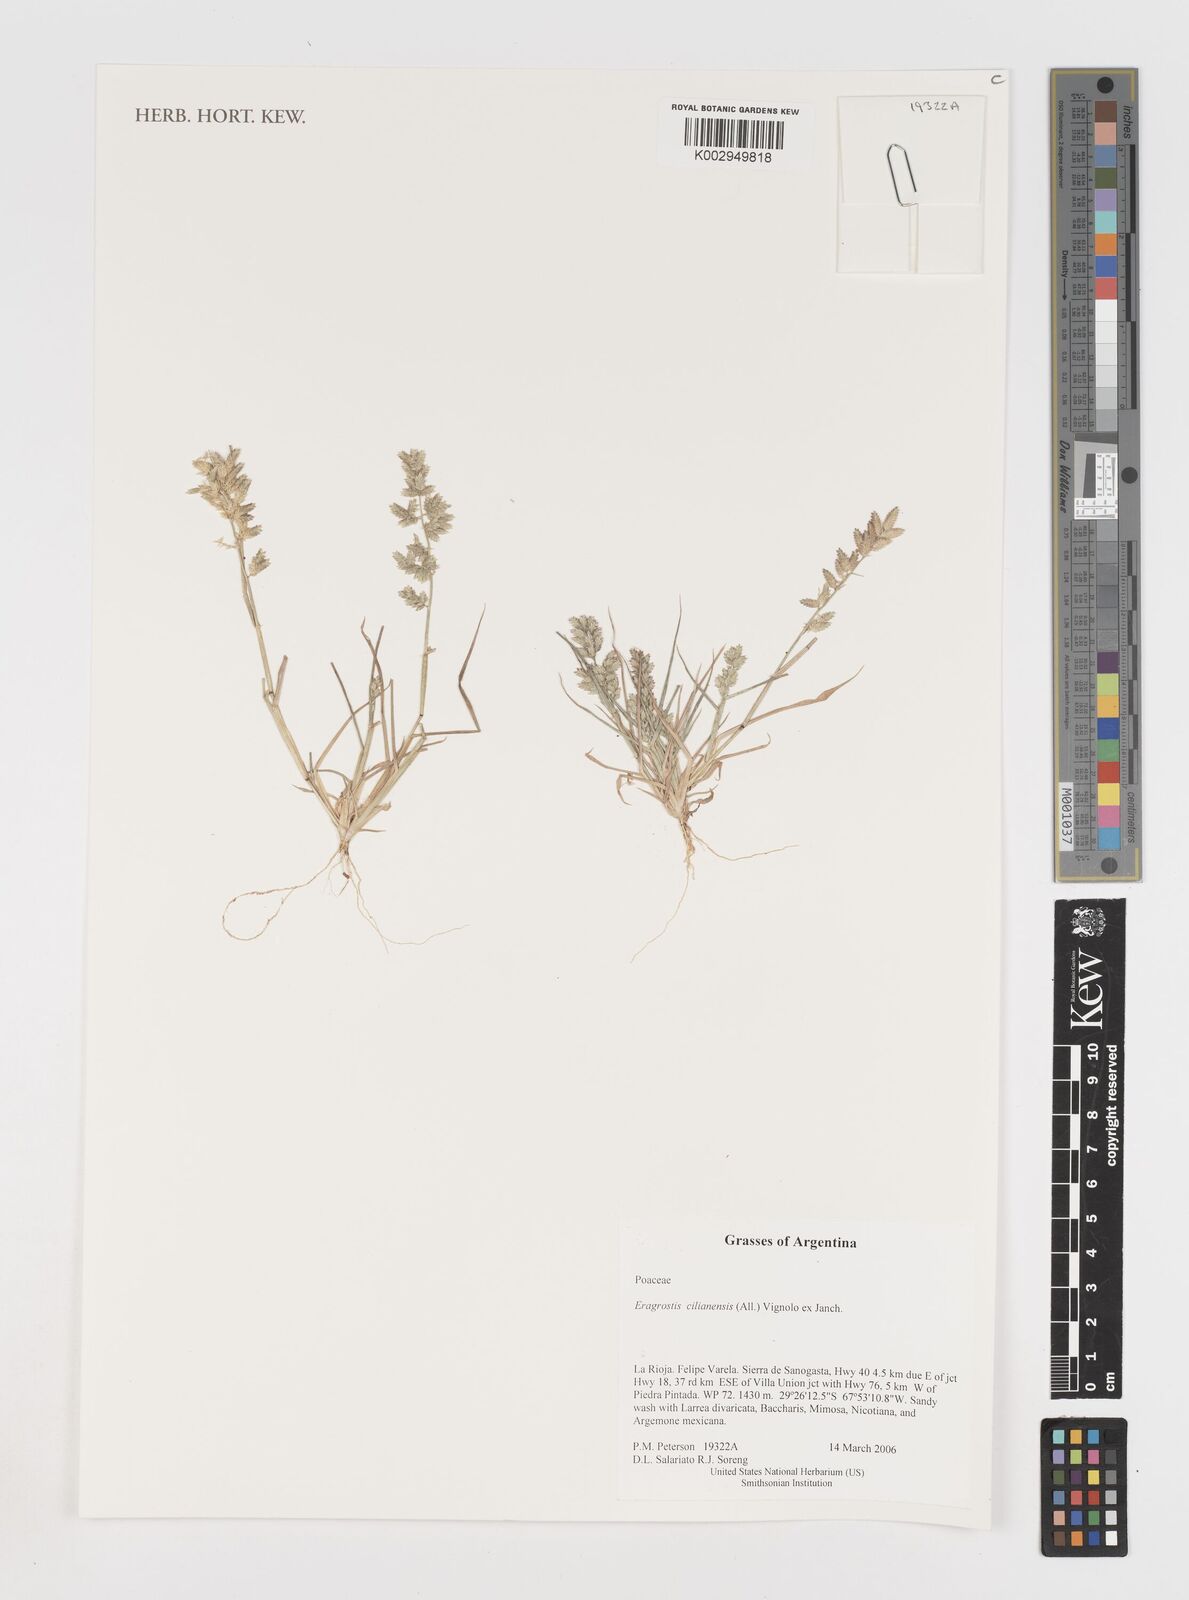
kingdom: Plantae
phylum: Tracheophyta
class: Liliopsida
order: Poales
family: Poaceae
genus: Eragrostis
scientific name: Eragrostis cilianensis
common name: Stinkgrass
